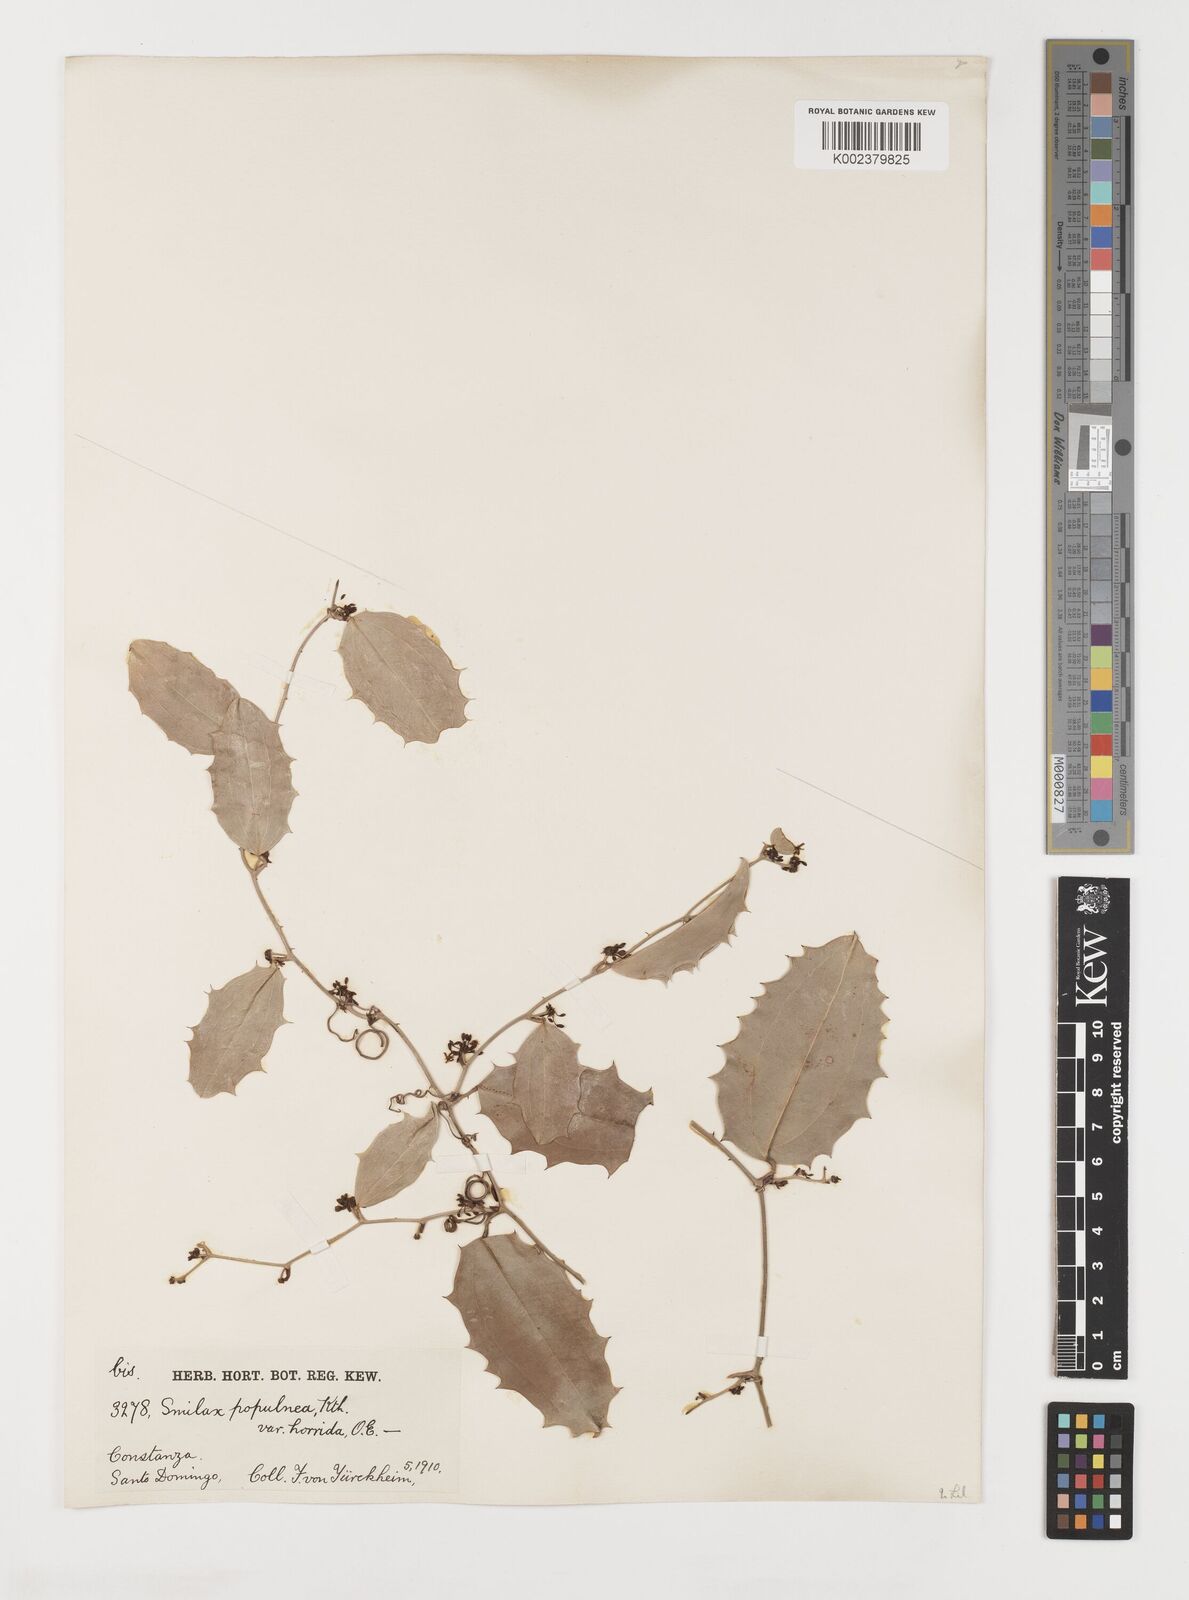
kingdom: Plantae
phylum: Tracheophyta
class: Liliopsida
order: Liliales
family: Smilacaceae
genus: Smilax
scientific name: Smilax populnea
